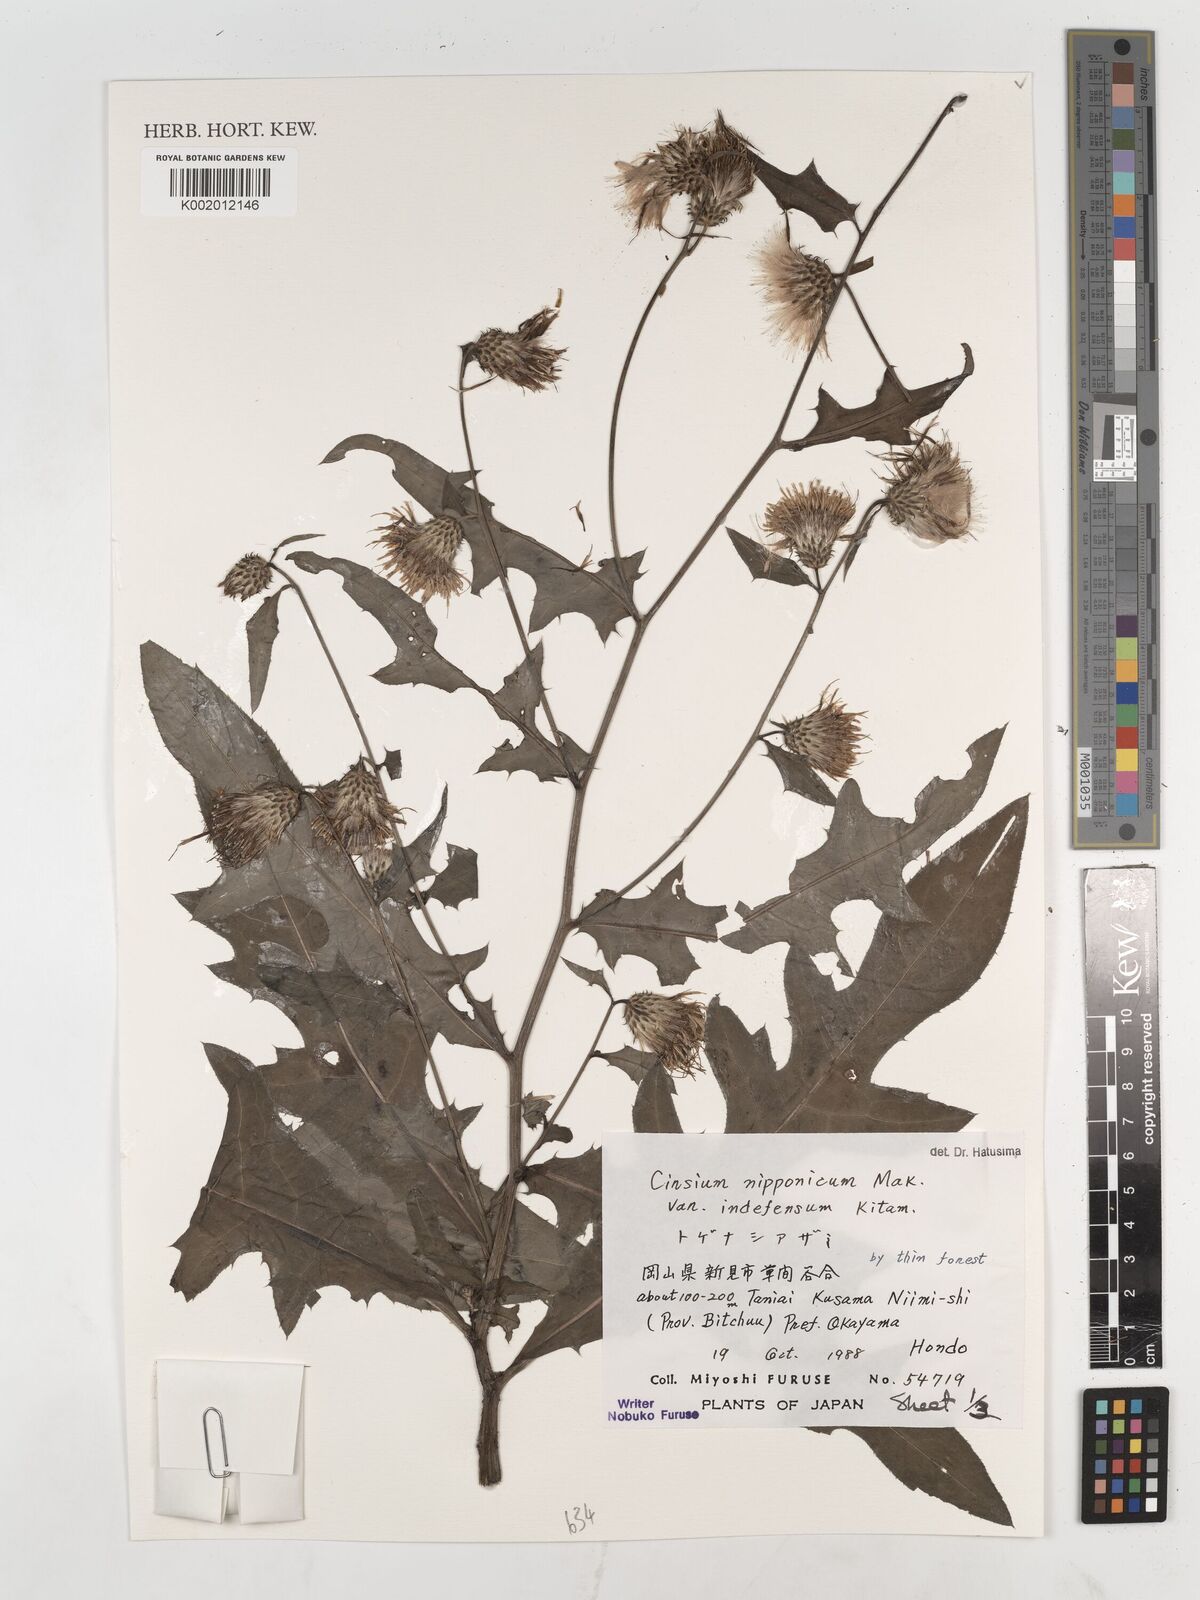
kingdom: Plantae
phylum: Tracheophyta
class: Magnoliopsida
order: Asterales
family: Asteraceae
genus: Cirsium
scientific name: Cirsium nipponicum
